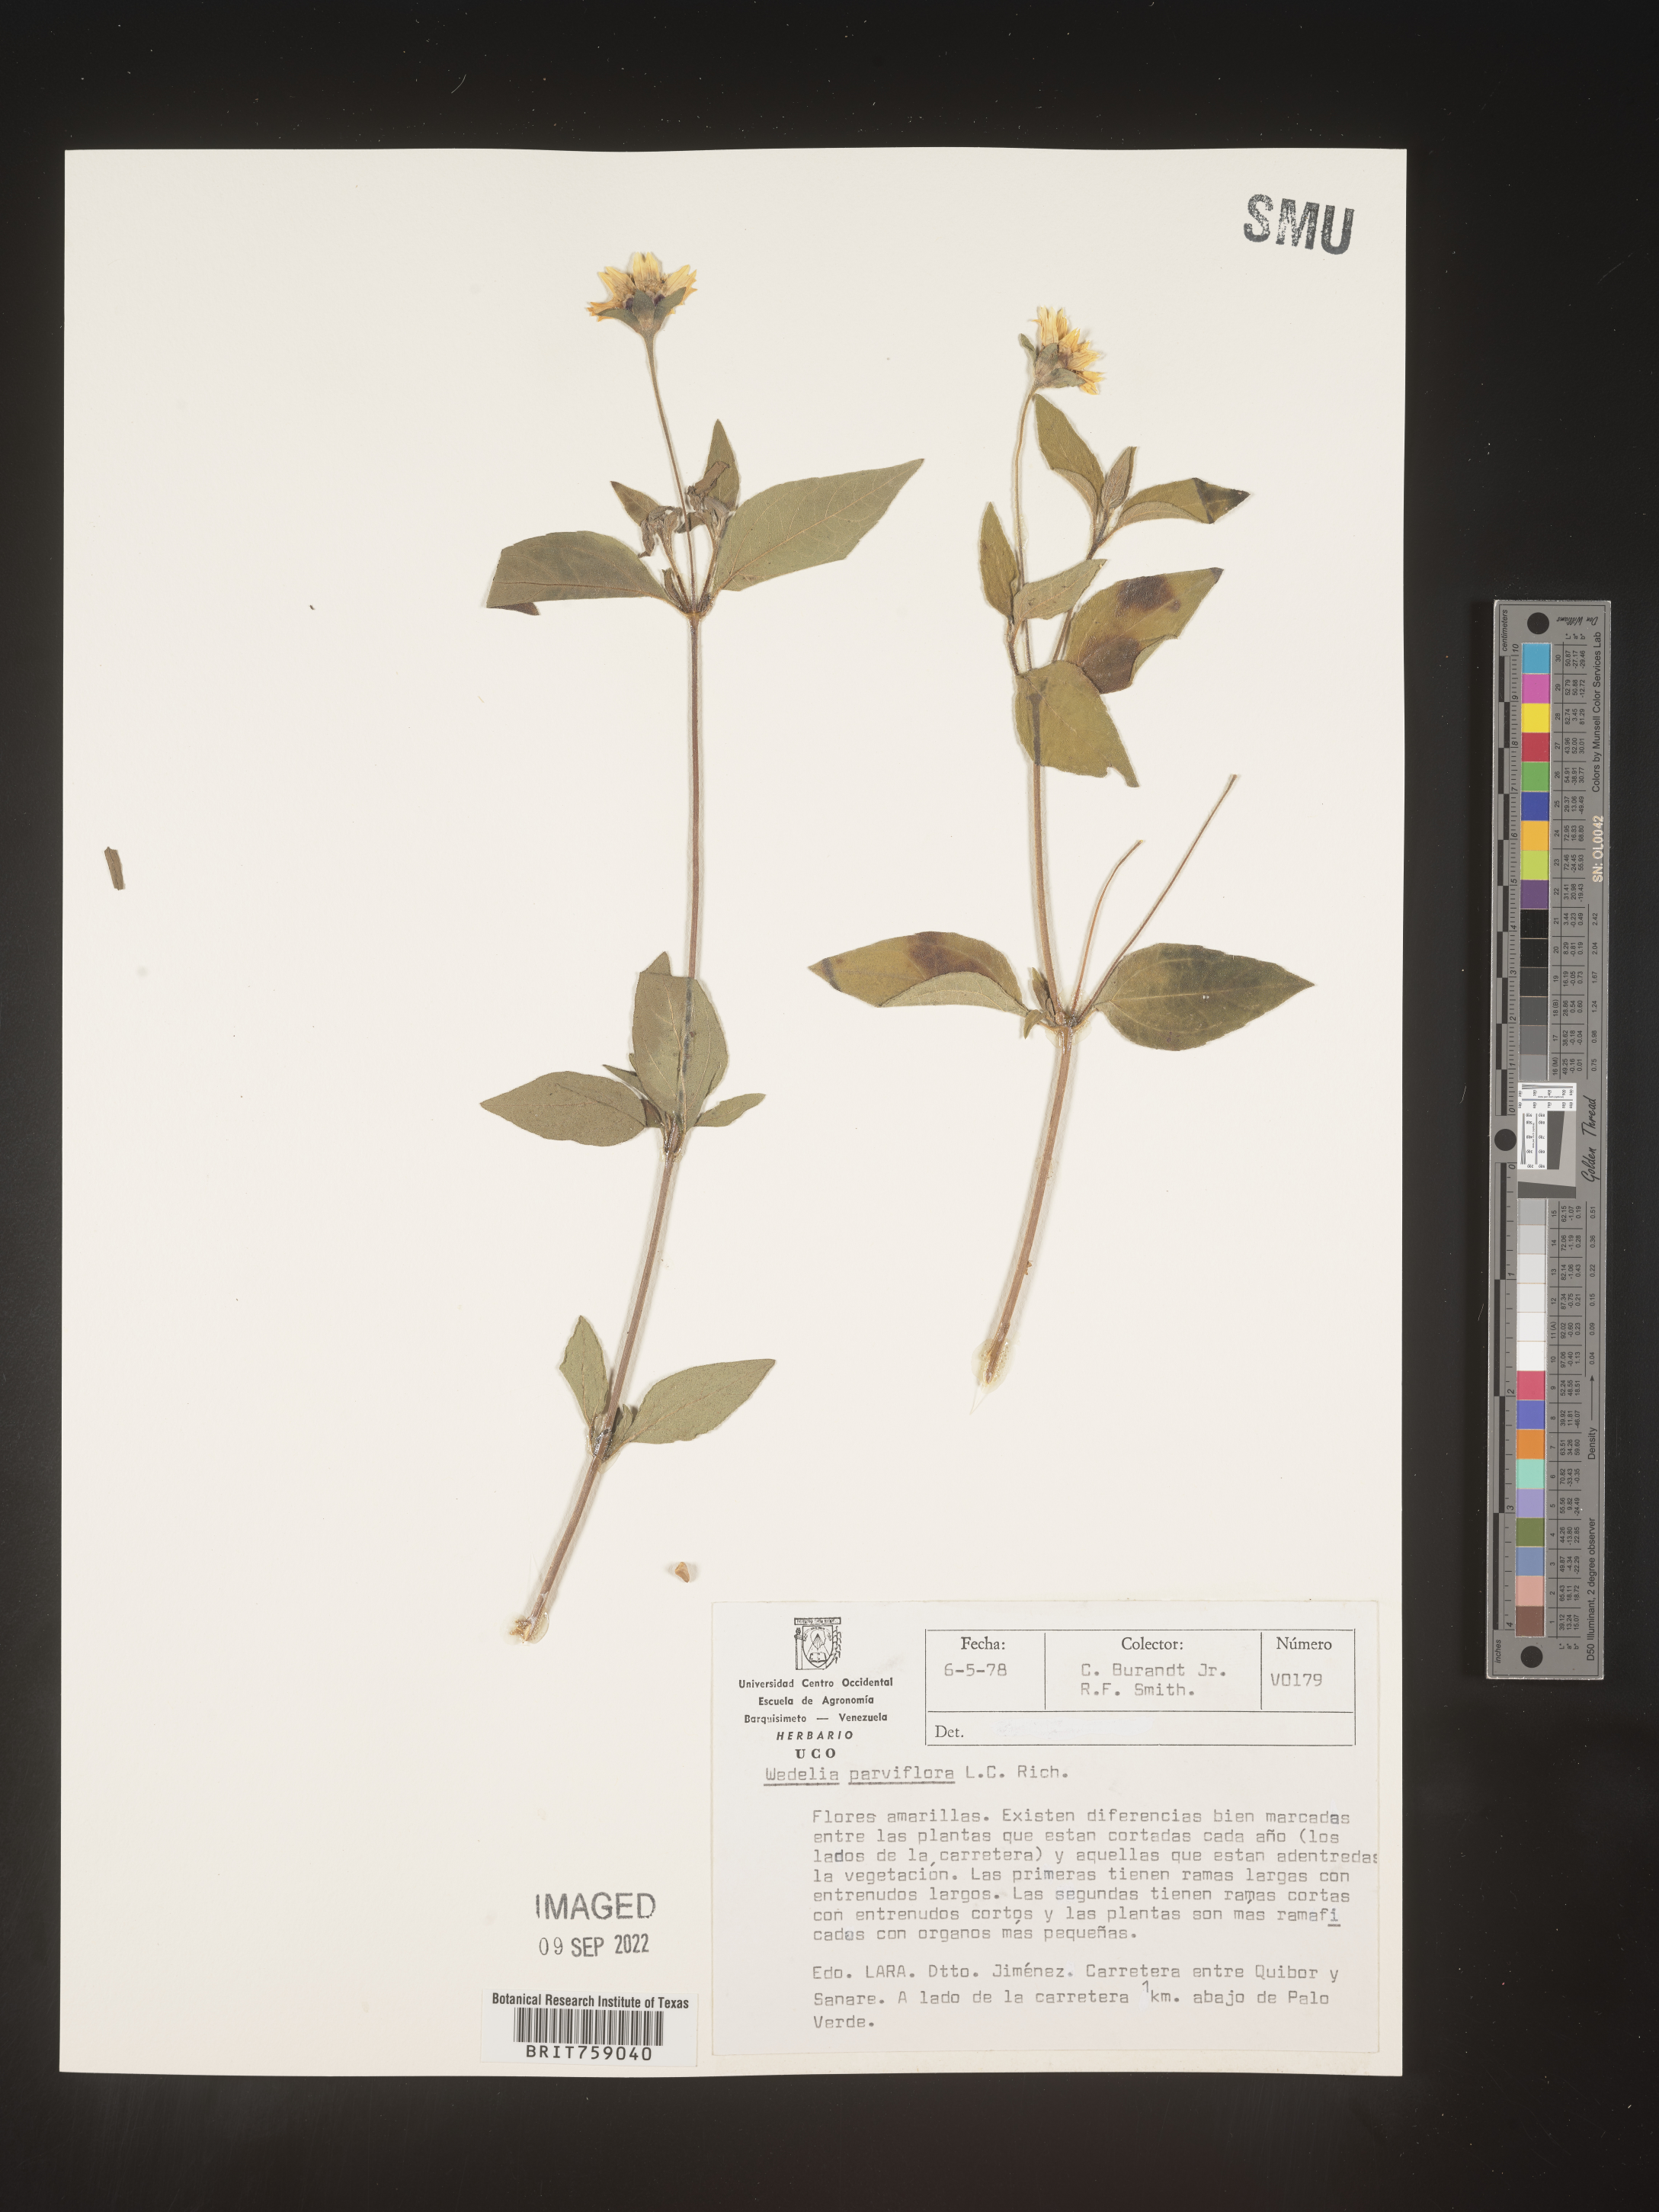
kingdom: Plantae
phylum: Tracheophyta
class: Magnoliopsida
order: Asterales
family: Asteraceae
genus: Wedelia
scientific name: Wedelia
